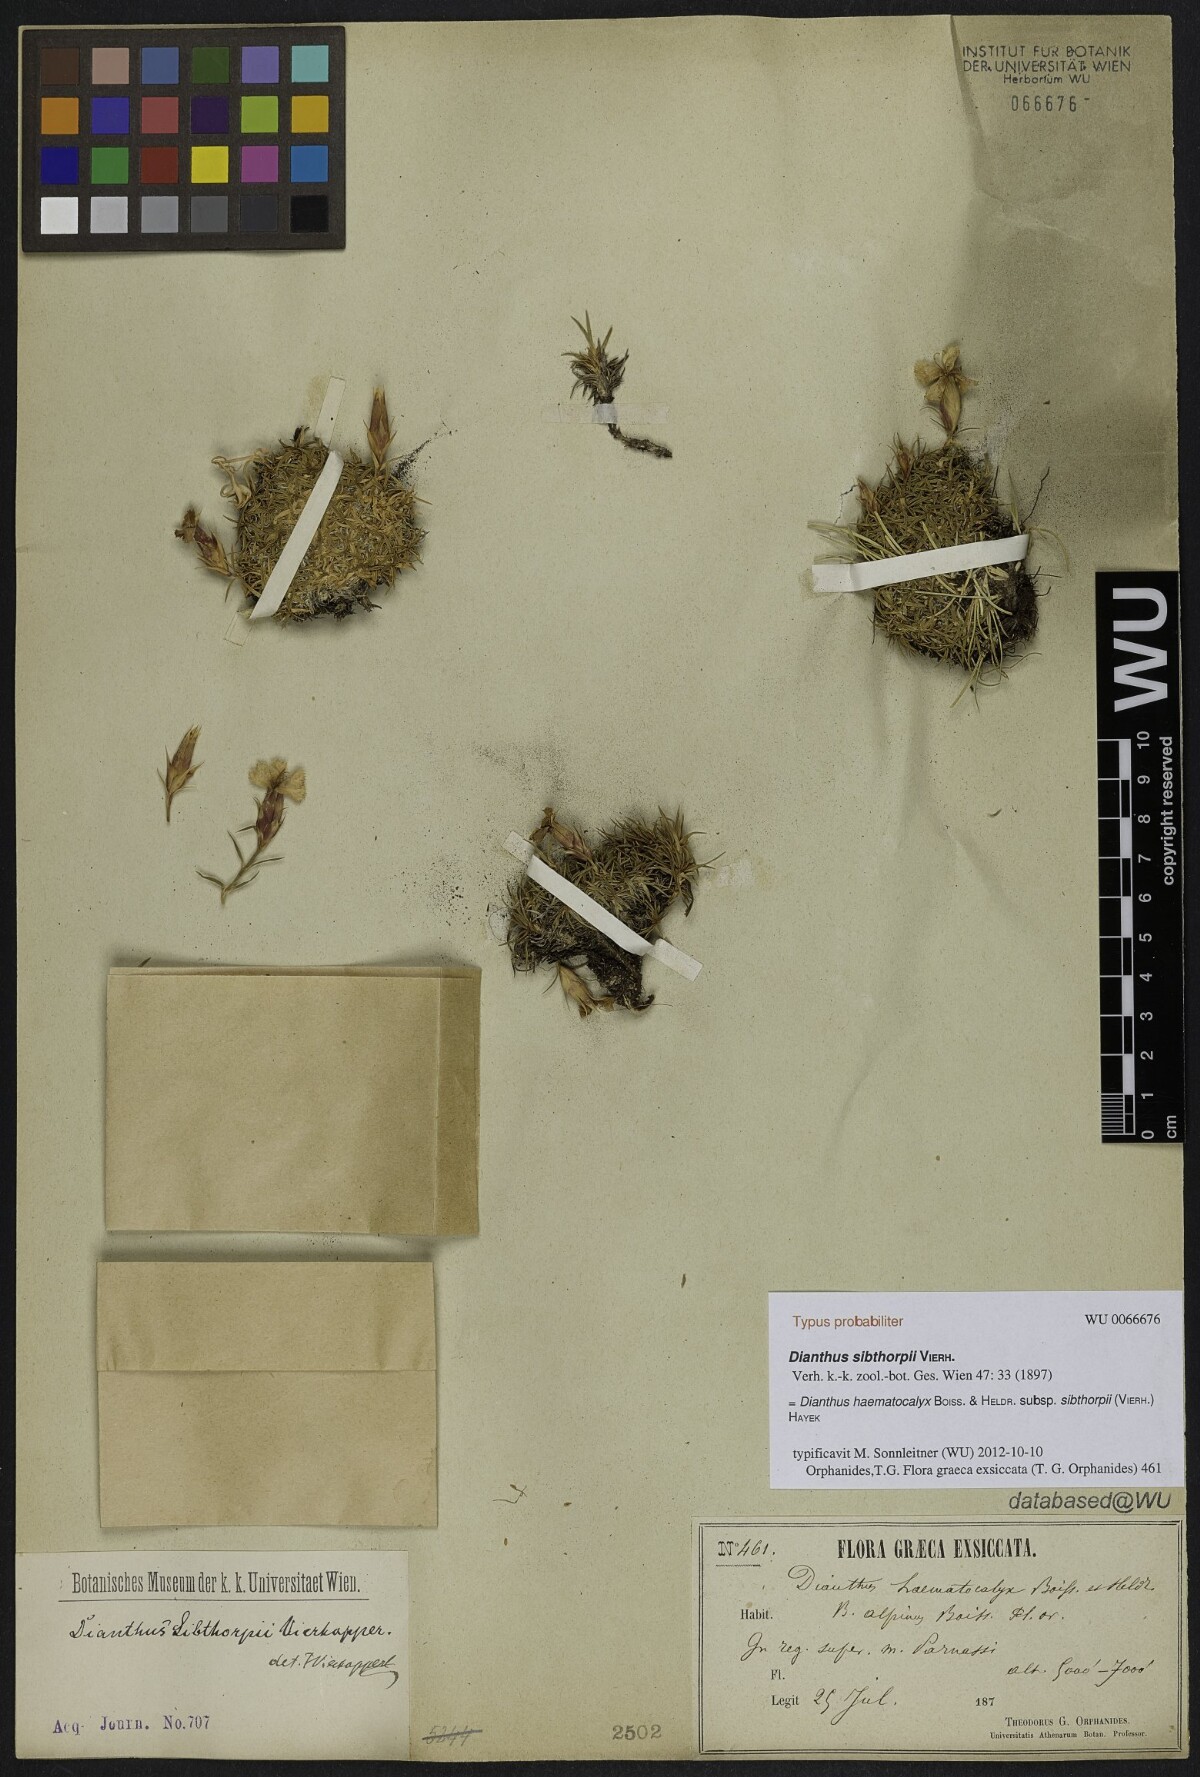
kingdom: Plantae
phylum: Tracheophyta
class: Magnoliopsida
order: Caryophyllales
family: Caryophyllaceae
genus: Dianthus
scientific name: Dianthus haematocalyx
